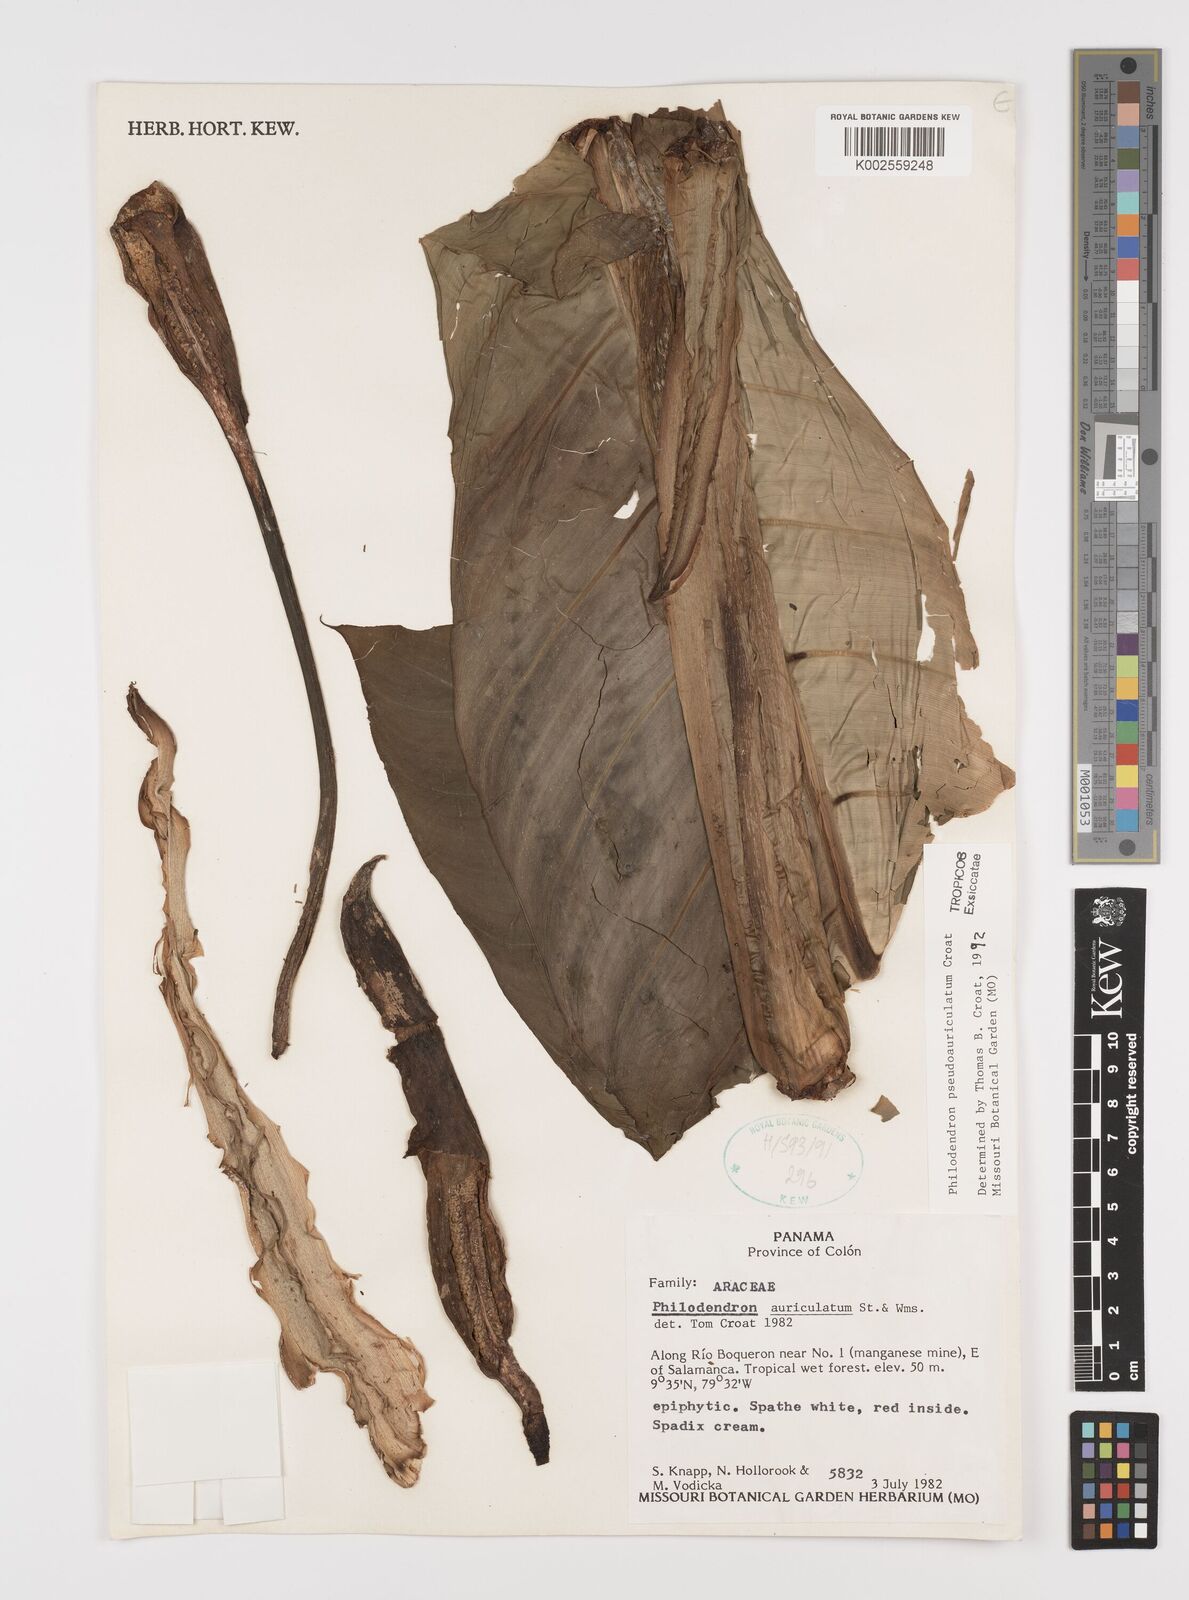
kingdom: Plantae
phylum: Tracheophyta
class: Liliopsida
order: Alismatales
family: Araceae
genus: Philodendron
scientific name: Philodendron pseudauriculatum
